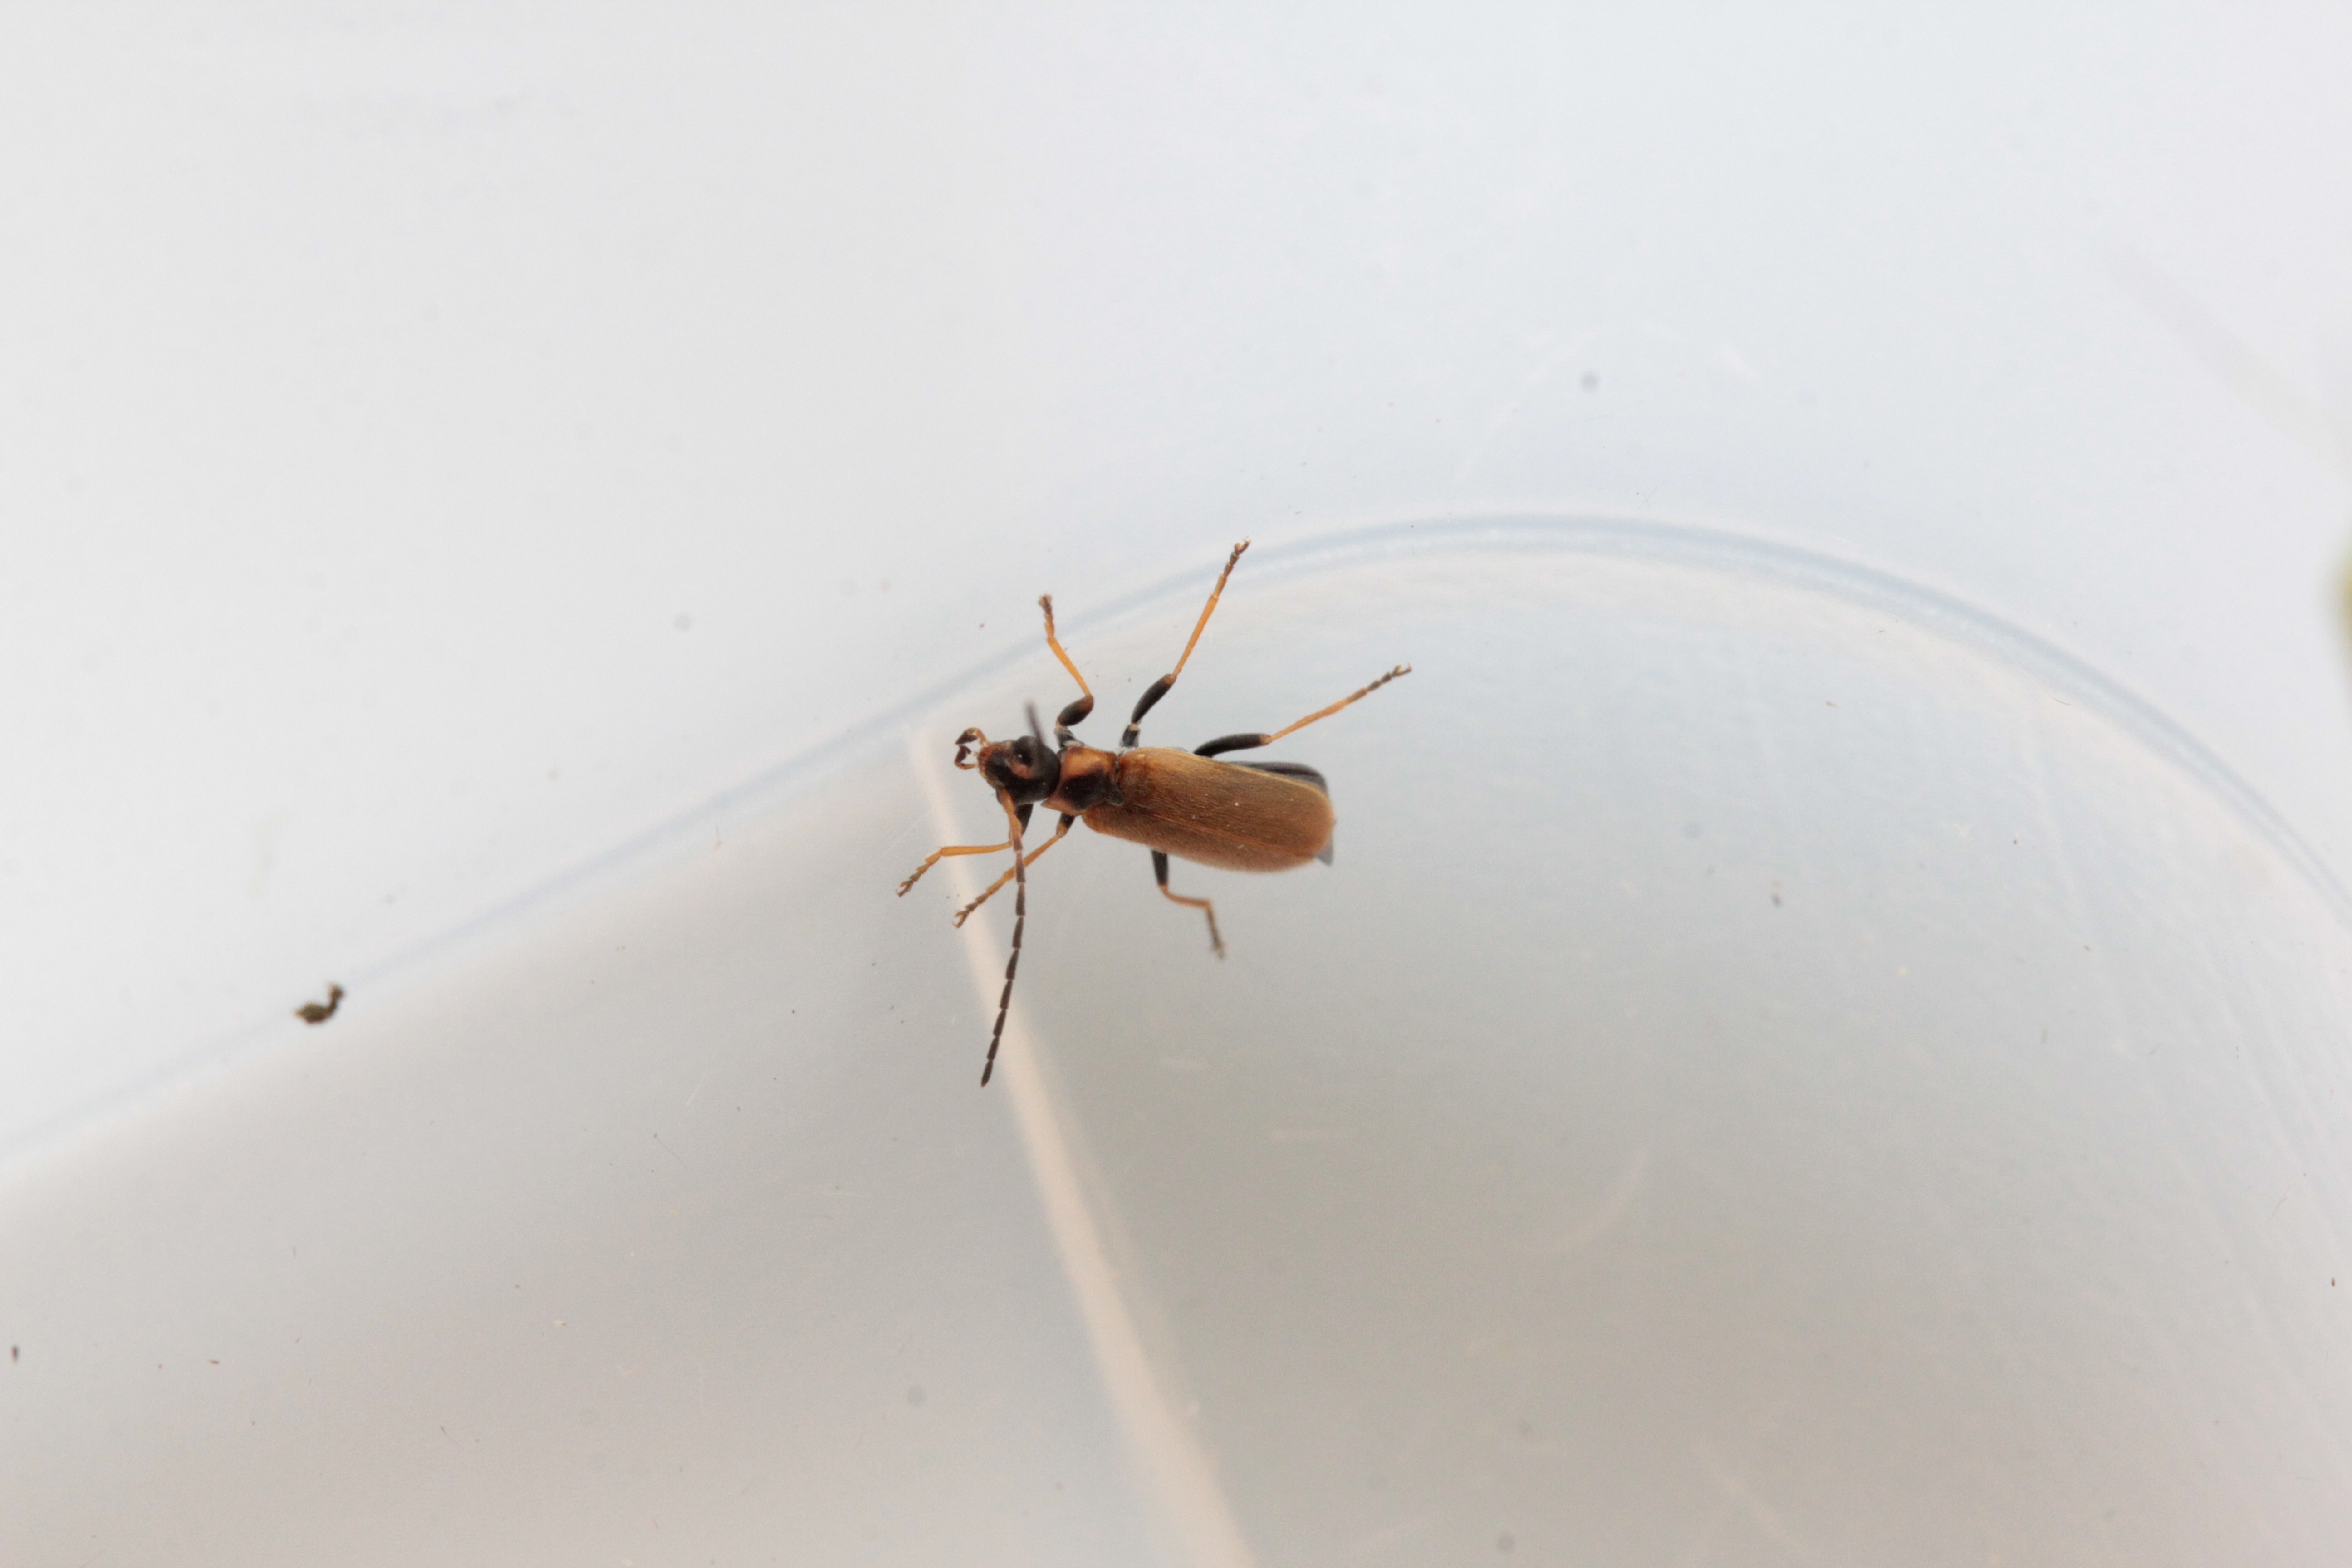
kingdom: Animalia
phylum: Arthropoda
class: Insecta
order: Coleoptera
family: Cantharidae
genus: Rhagonycha
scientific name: Rhagonycha nigriventris
